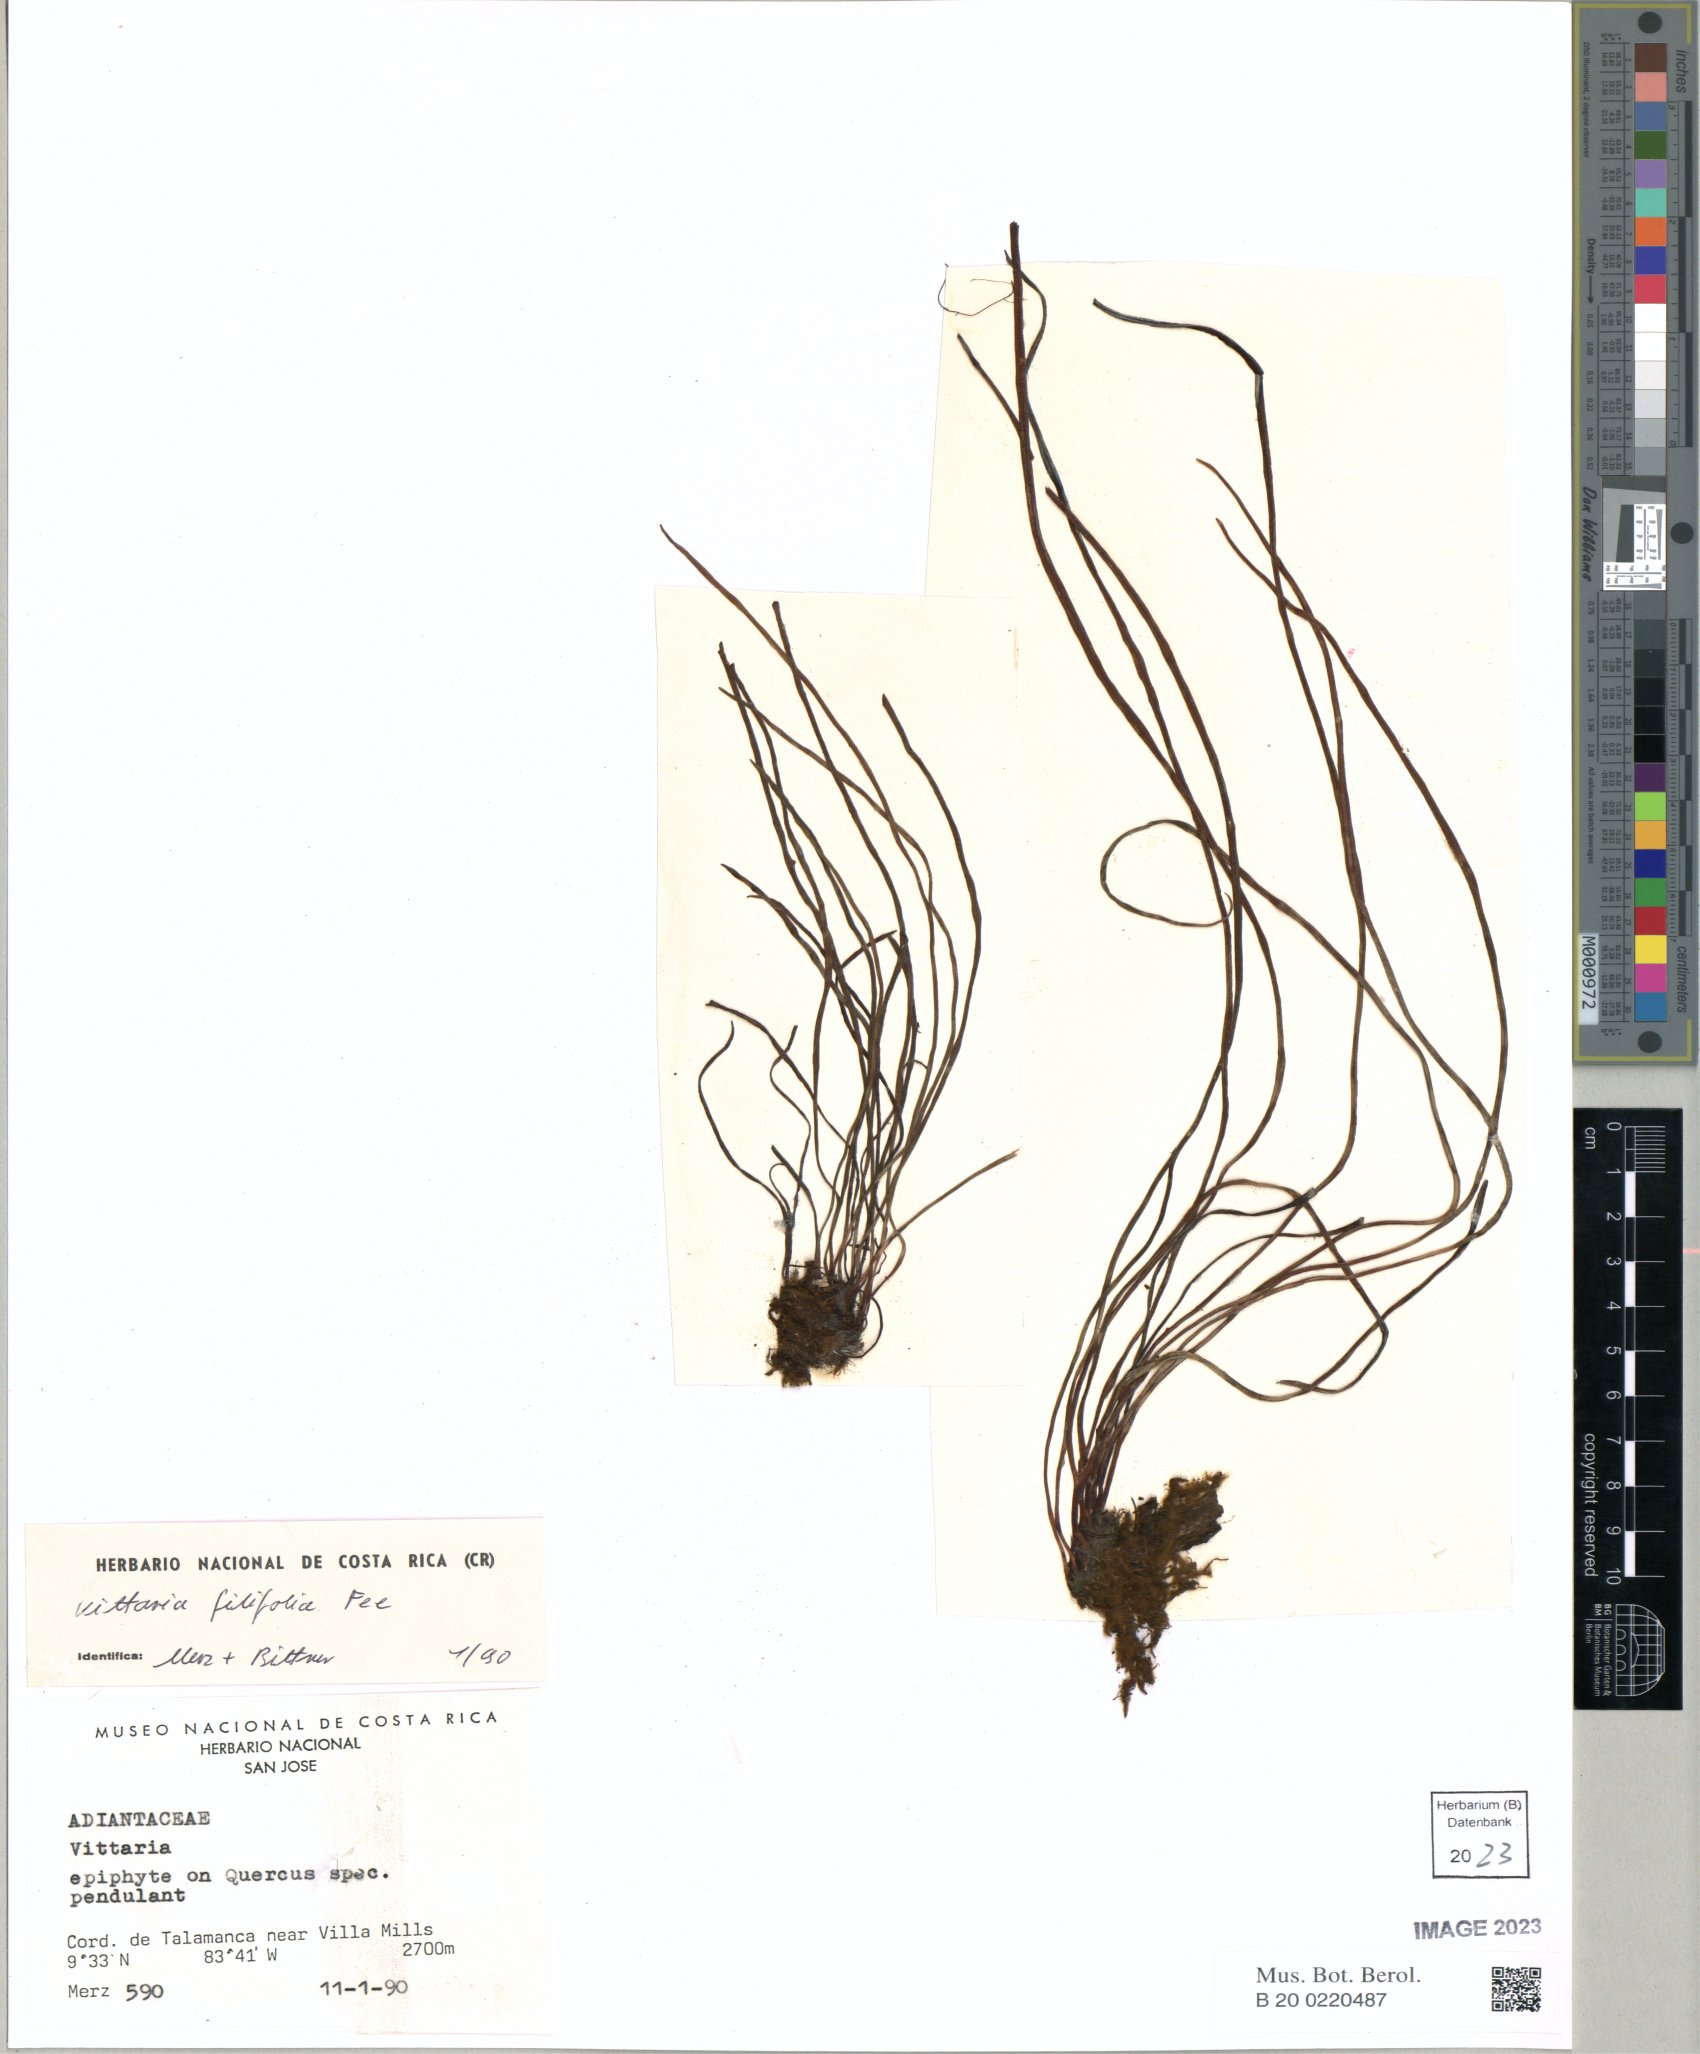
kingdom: Plantae
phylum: Tracheophyta
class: Polypodiopsida
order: Polypodiales
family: Pteridaceae
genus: Vittaria
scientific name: Vittaria graminifolia
